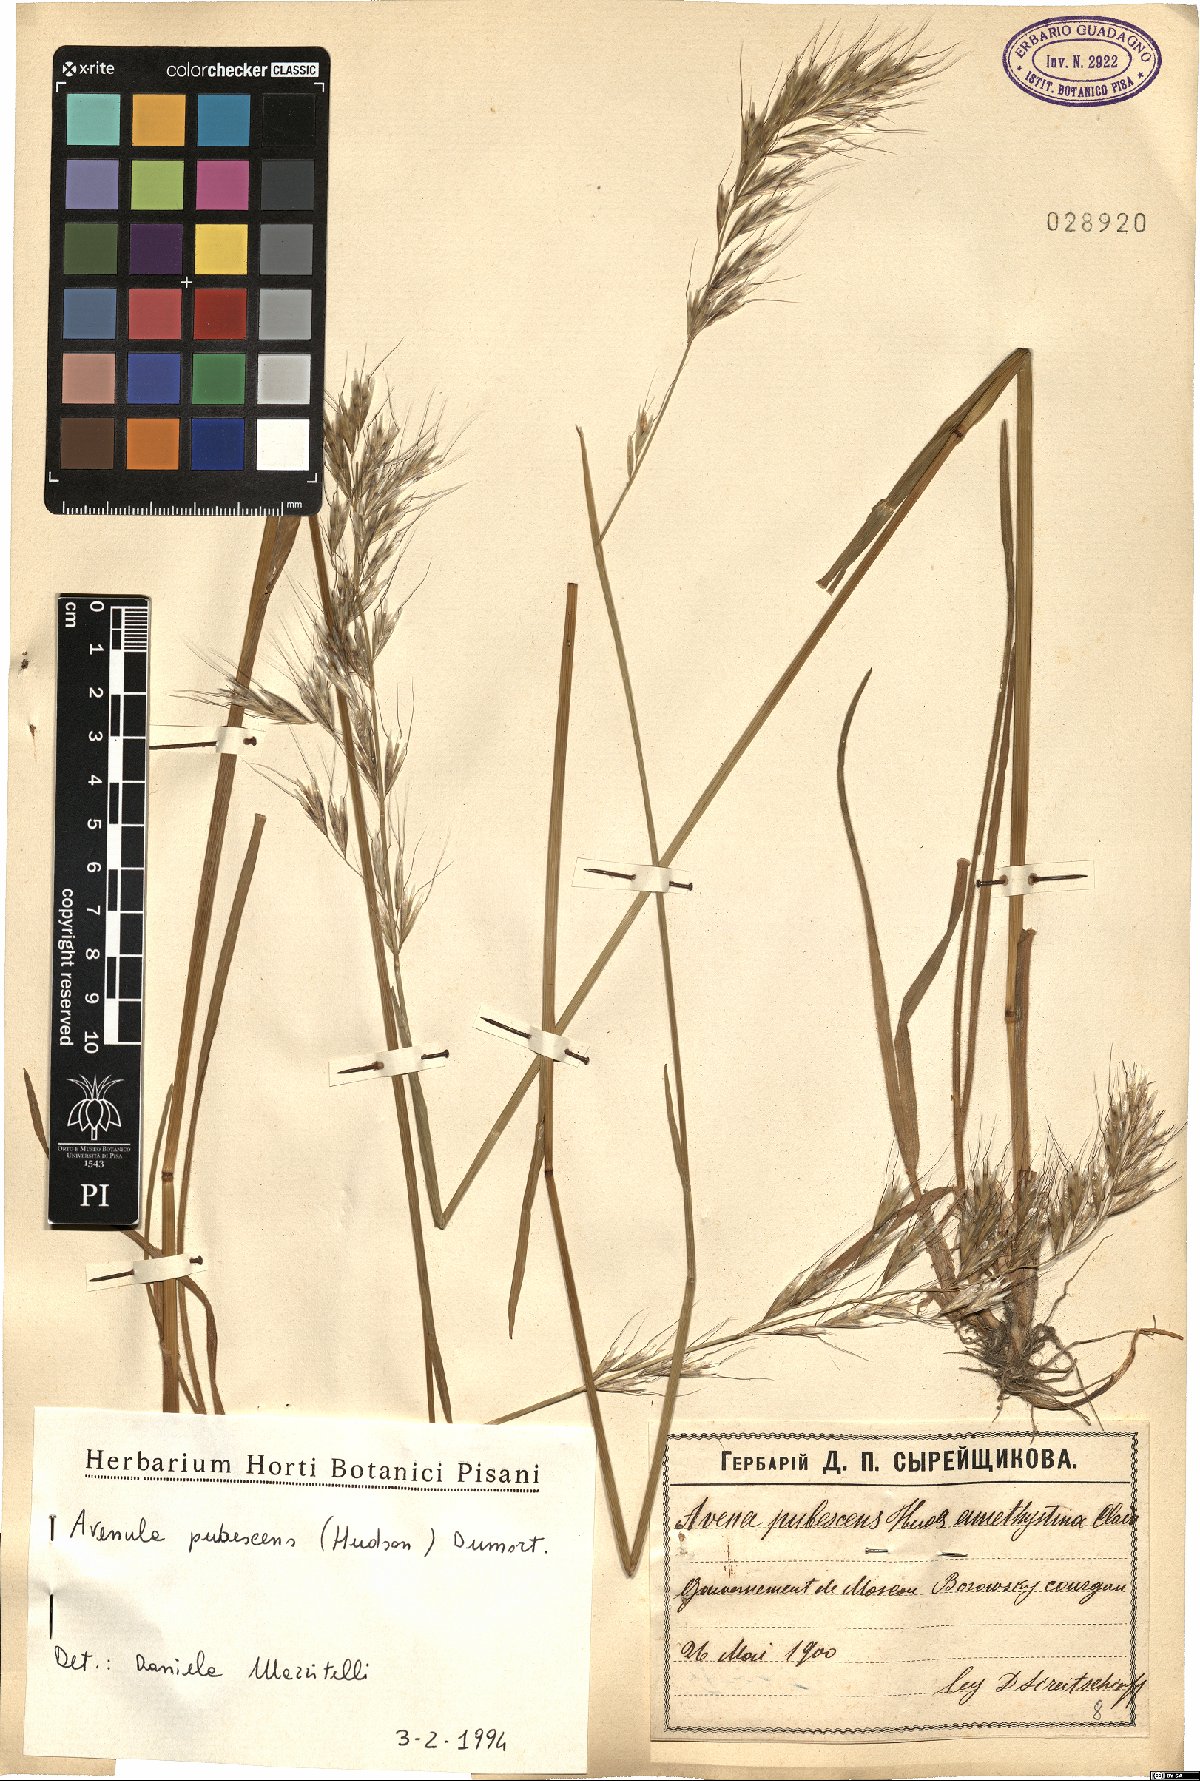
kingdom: Plantae
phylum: Tracheophyta
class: Liliopsida
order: Poales
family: Poaceae
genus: Avenula
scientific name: Avenula pubescens
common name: Downy alpine oatgrass
